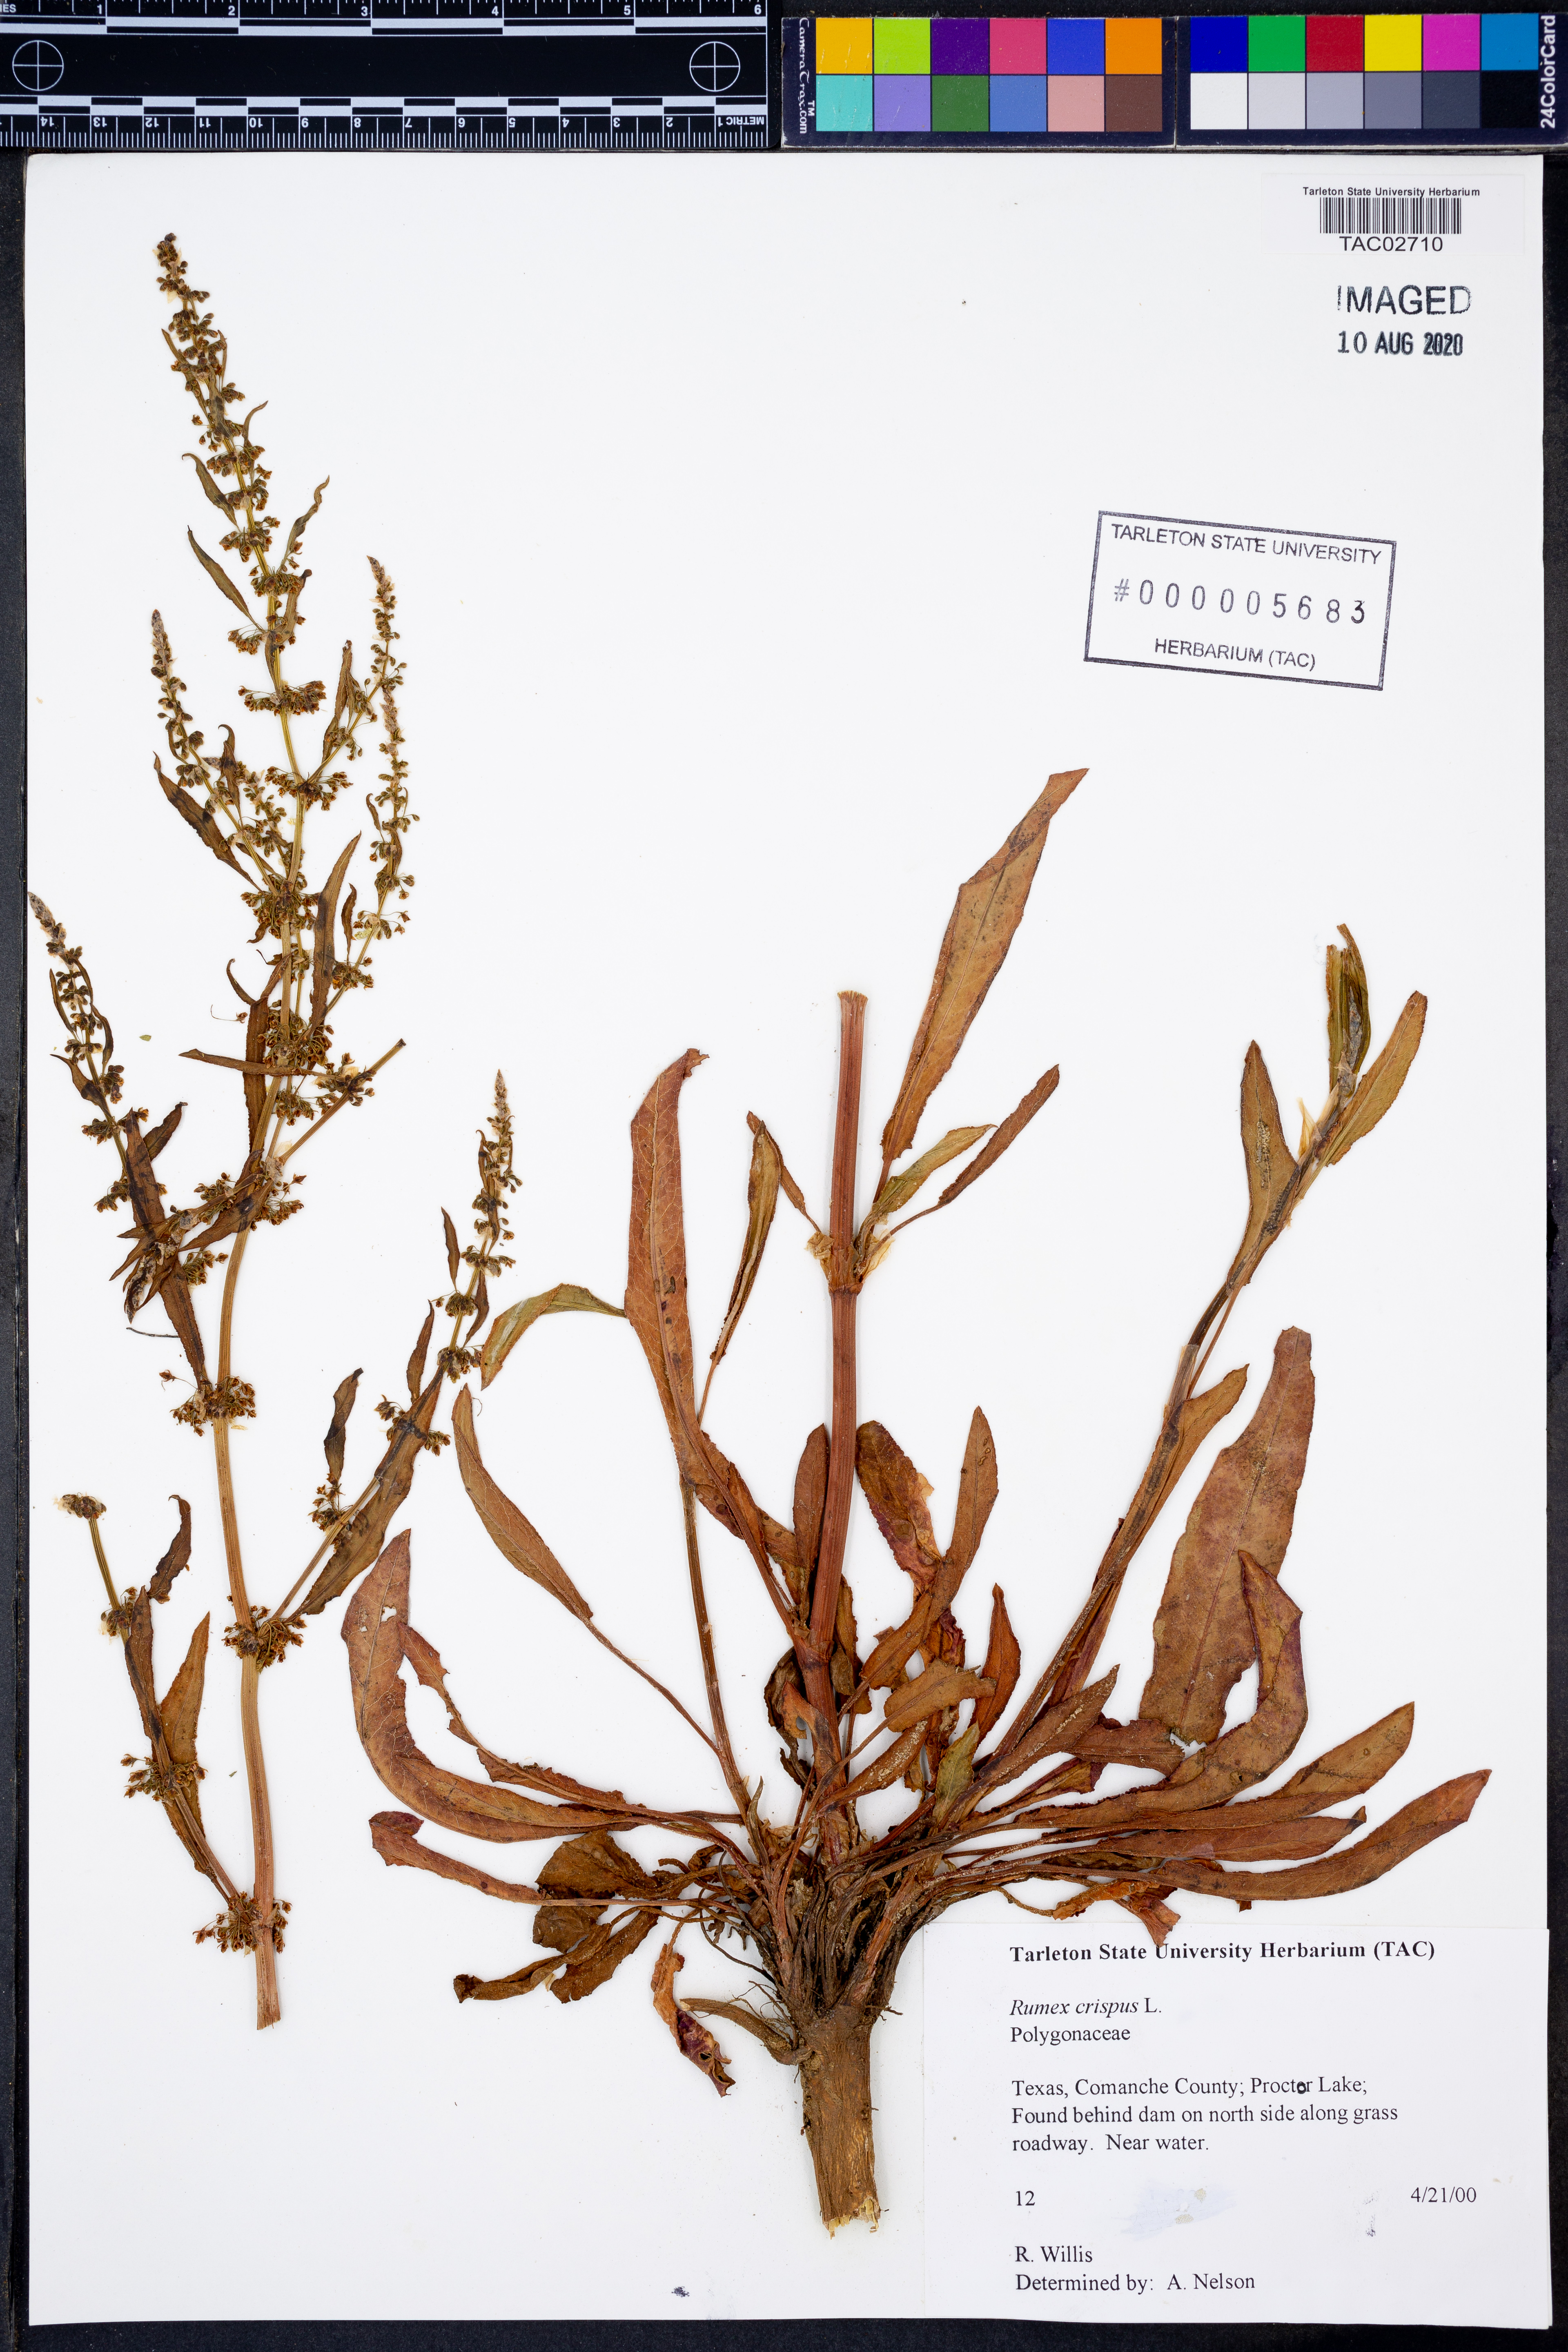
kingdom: Plantae
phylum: Tracheophyta
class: Magnoliopsida
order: Caryophyllales
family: Polygonaceae
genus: Rumex
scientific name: Rumex crispus
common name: Curled dock
